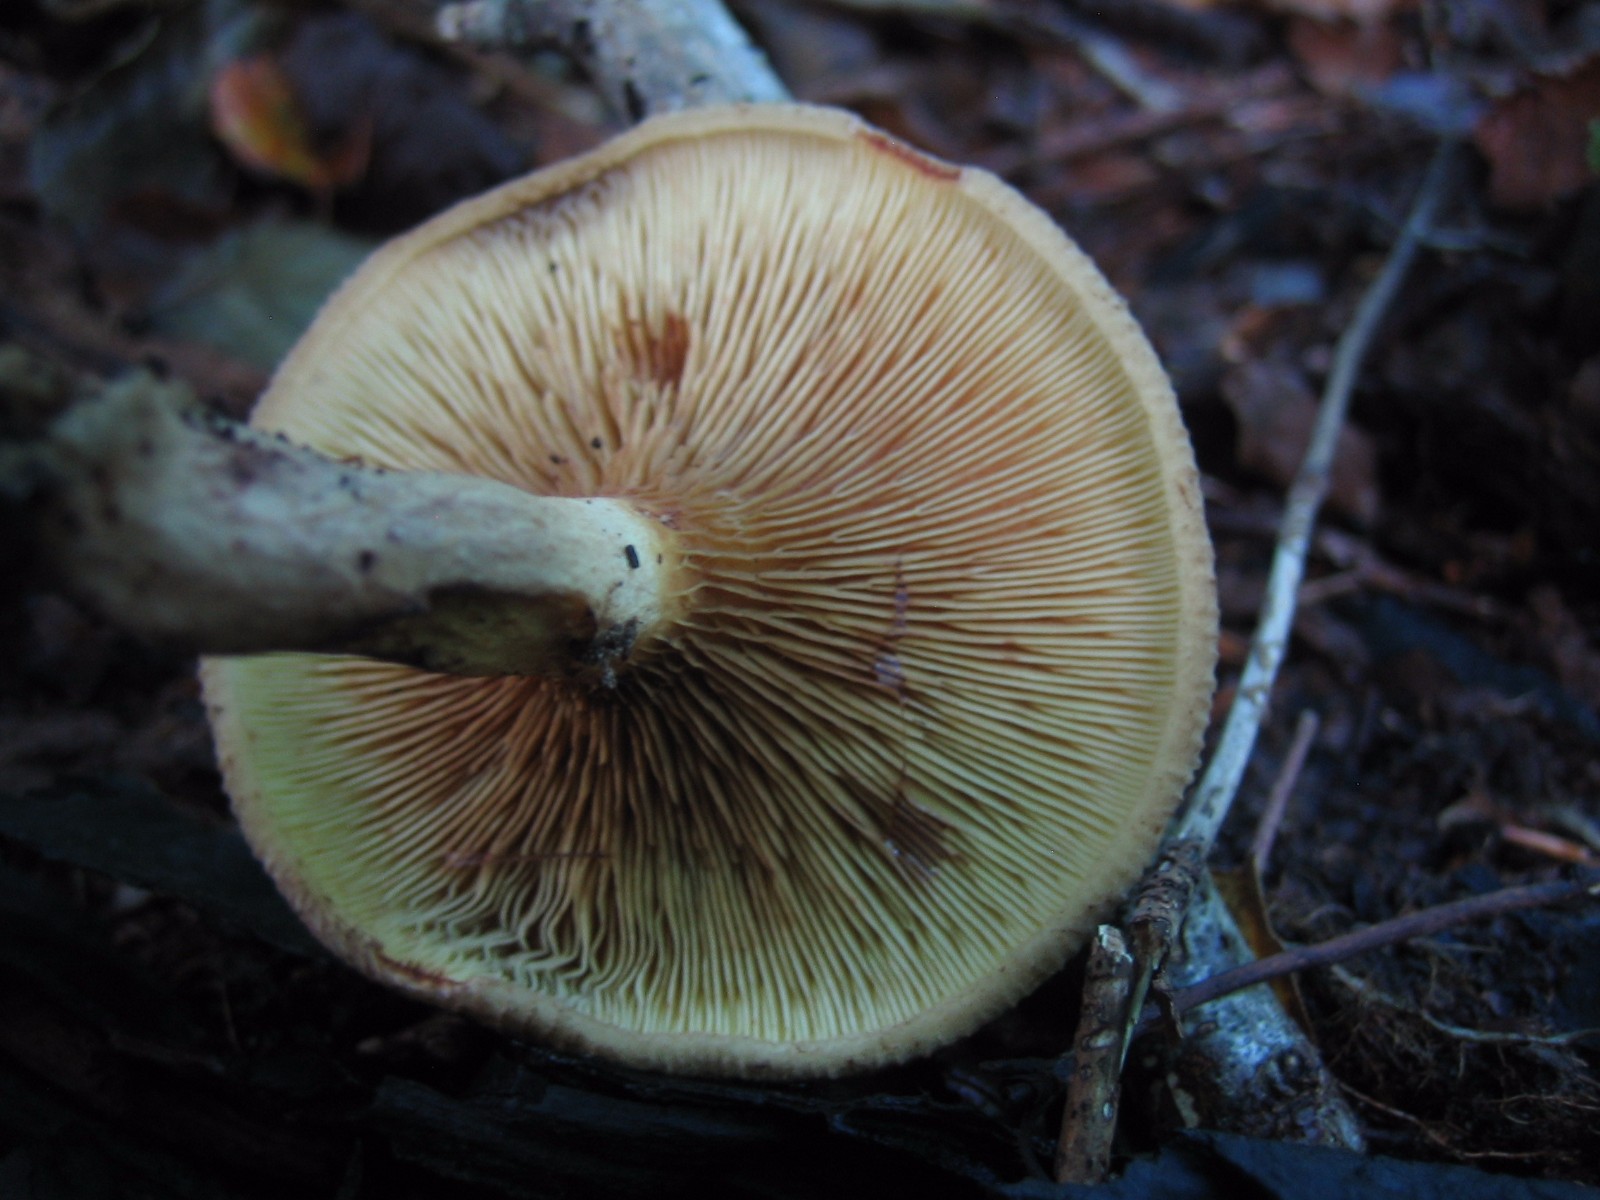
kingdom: Fungi
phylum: Basidiomycota
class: Agaricomycetes
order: Boletales
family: Paxillaceae
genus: Paxillus
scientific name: Paxillus involutus
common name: almindelig netbladhat
